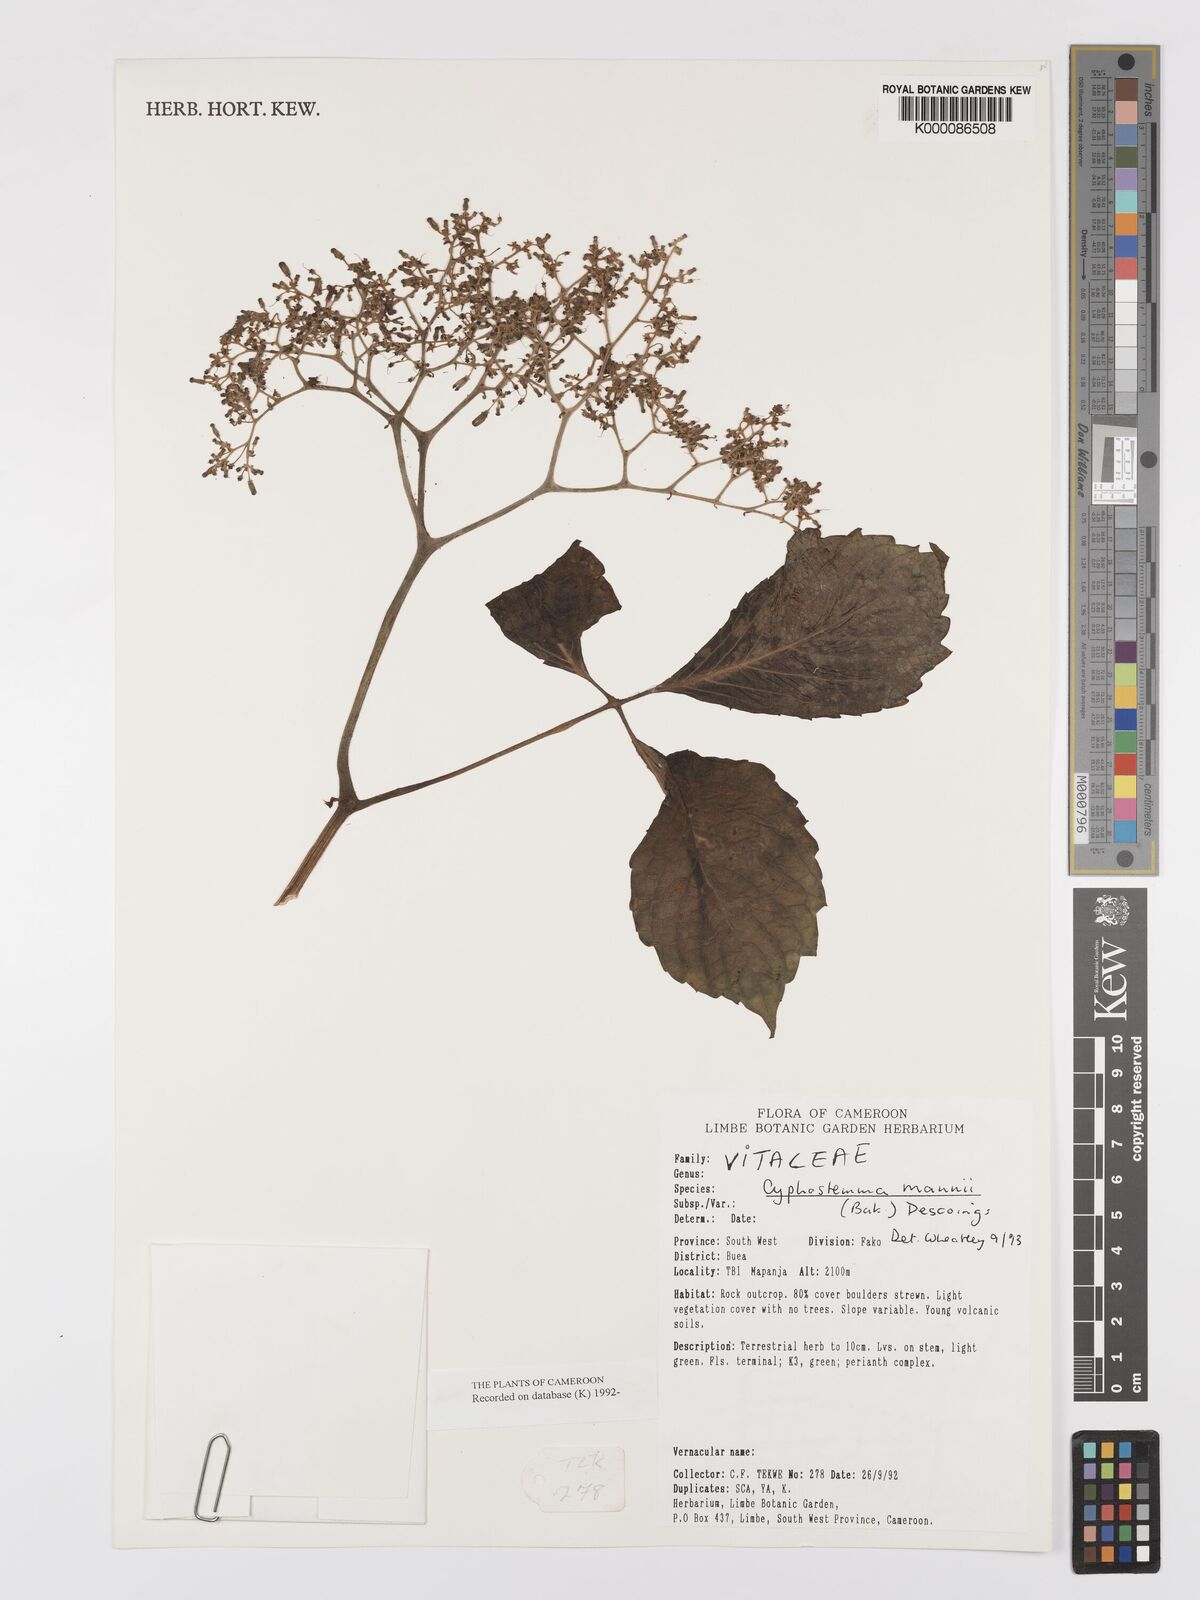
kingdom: Plantae
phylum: Tracheophyta
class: Magnoliopsida
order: Vitales
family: Vitaceae
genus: Cyphostemma
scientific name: Cyphostemma mannii
